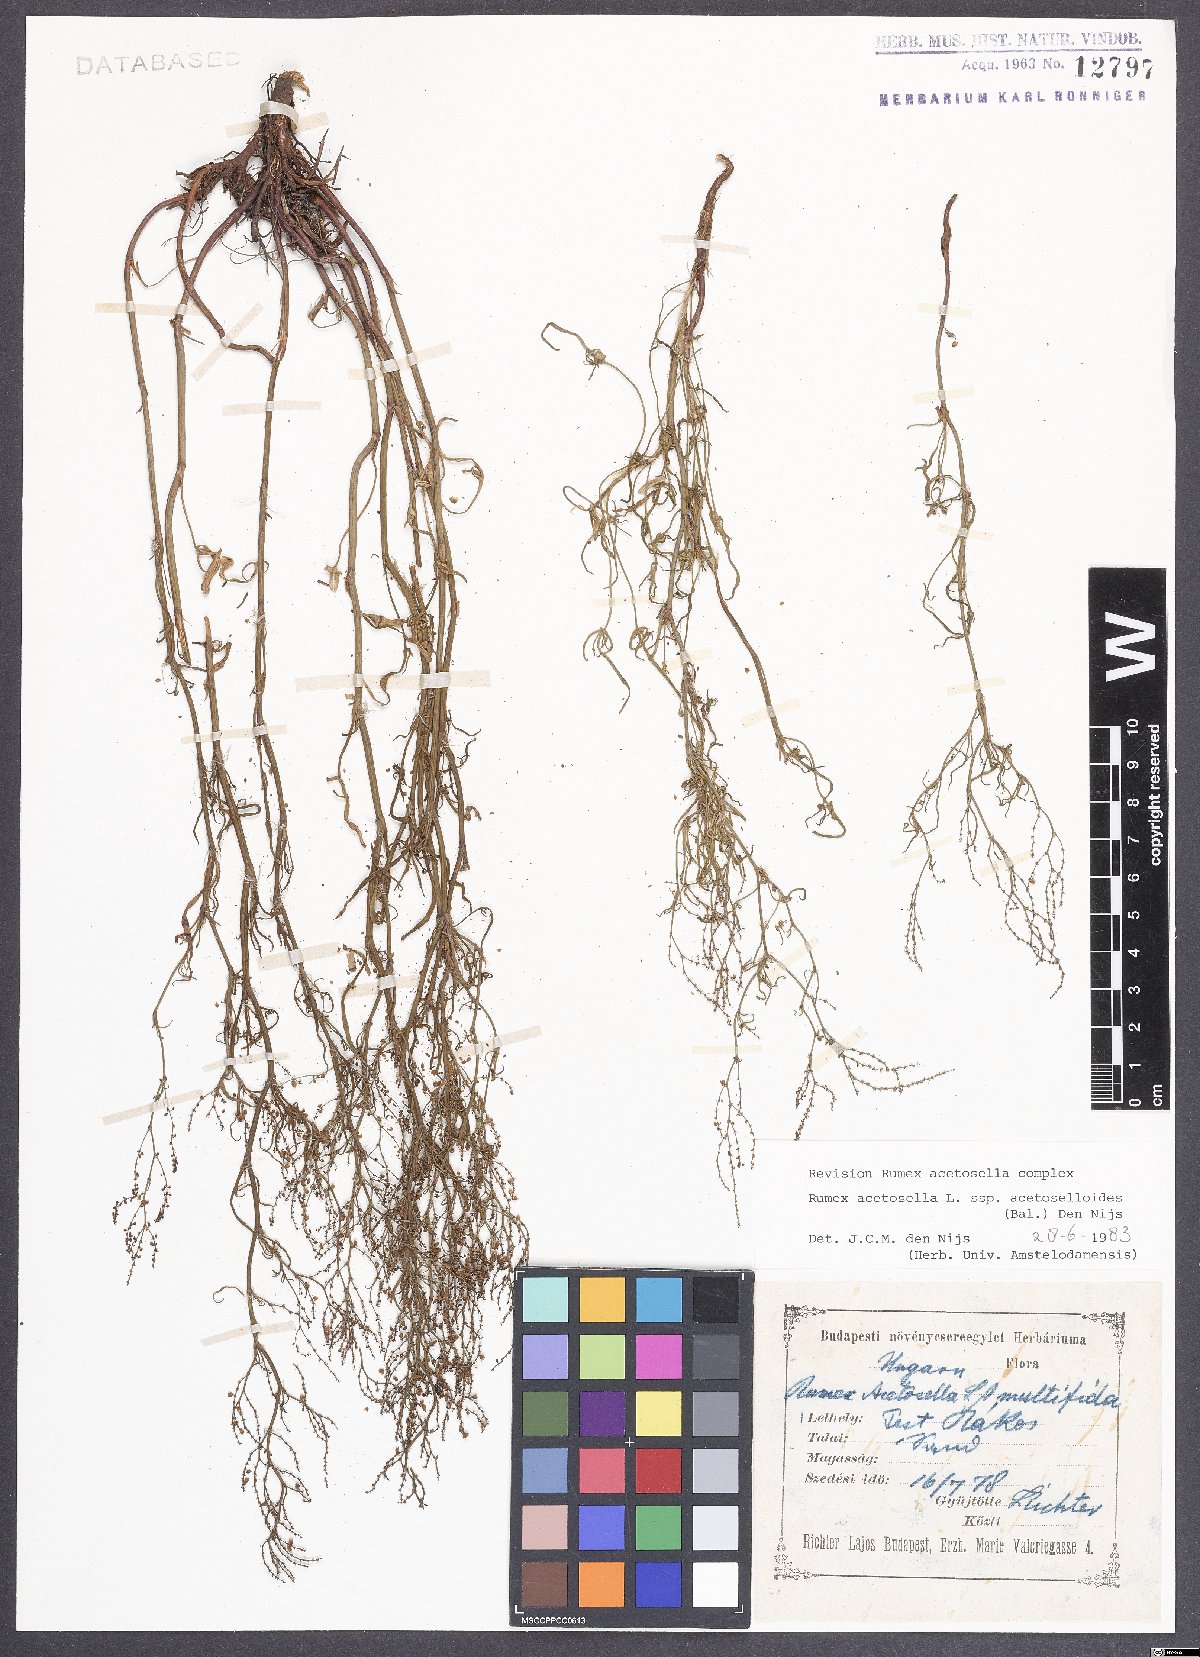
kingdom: Plantae
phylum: Tracheophyta
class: Magnoliopsida
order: Caryophyllales
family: Polygonaceae
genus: Rumex
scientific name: Rumex acetosella
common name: Common sheep sorrel
